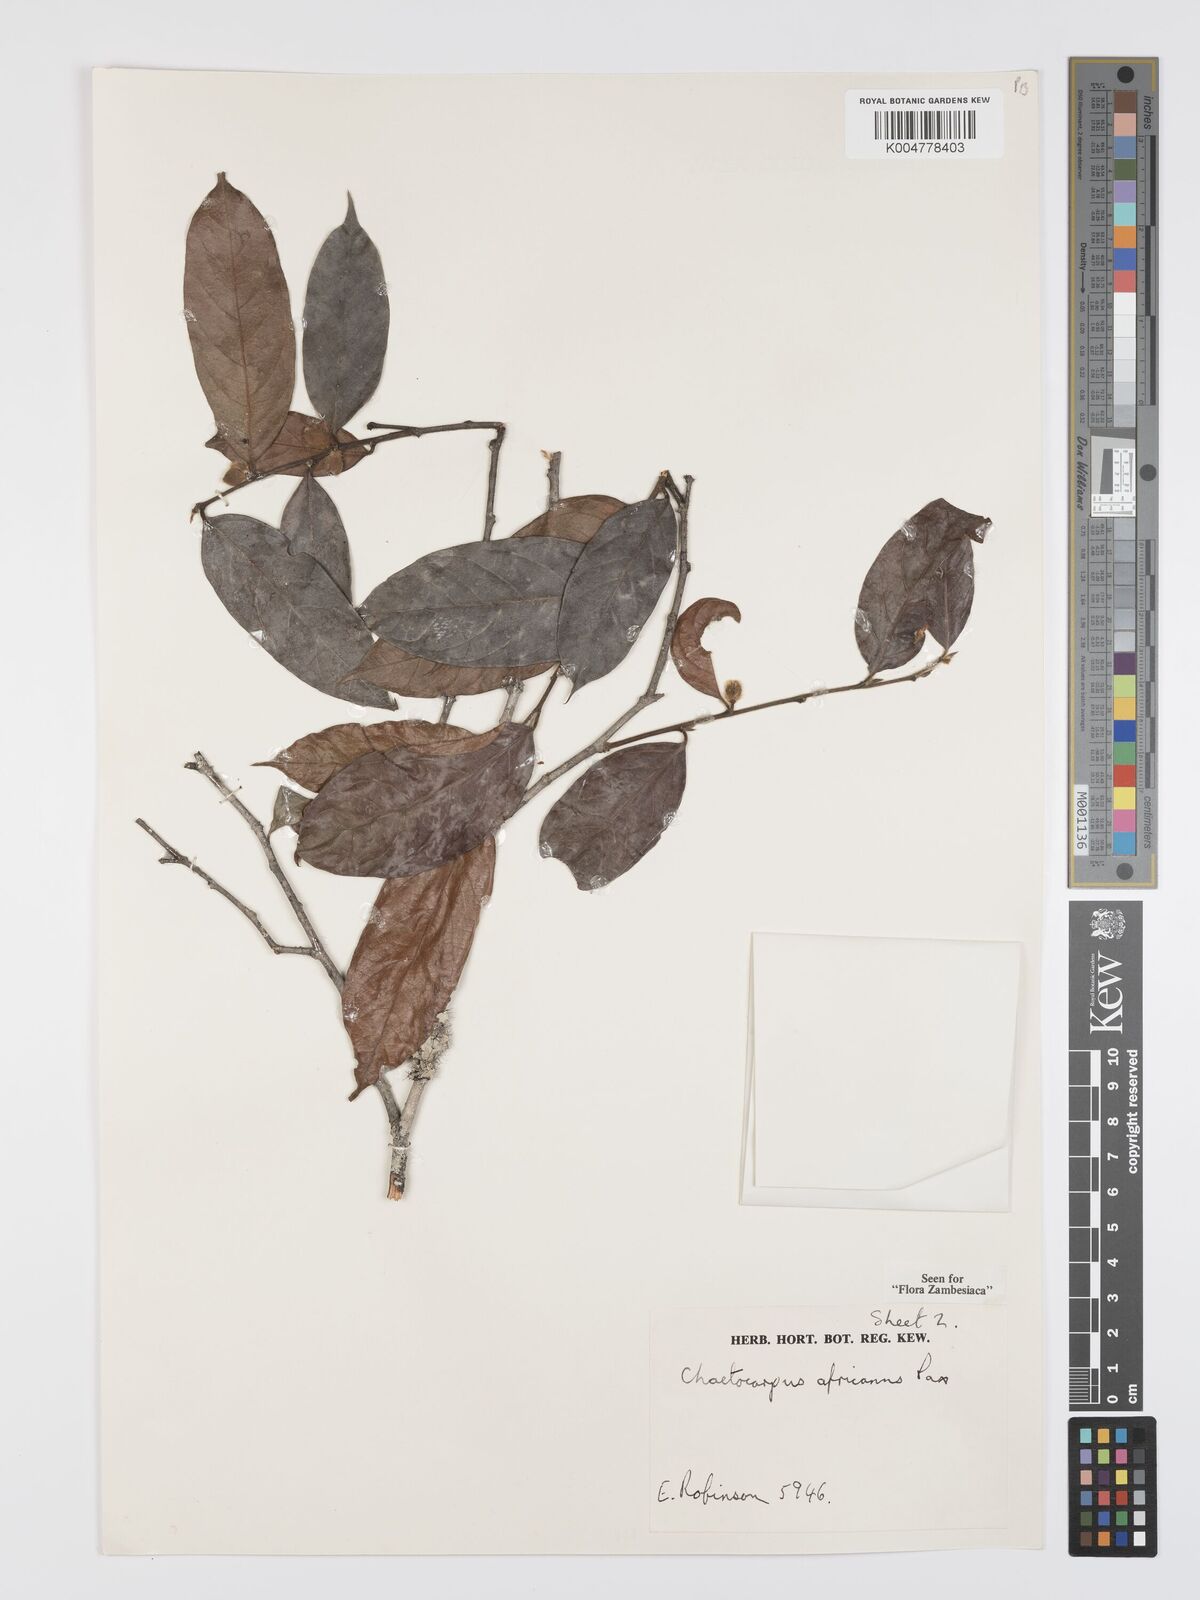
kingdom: Plantae
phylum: Tracheophyta
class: Magnoliopsida
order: Malpighiales
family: Peraceae
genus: Chaetocarpus
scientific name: Chaetocarpus africanus
